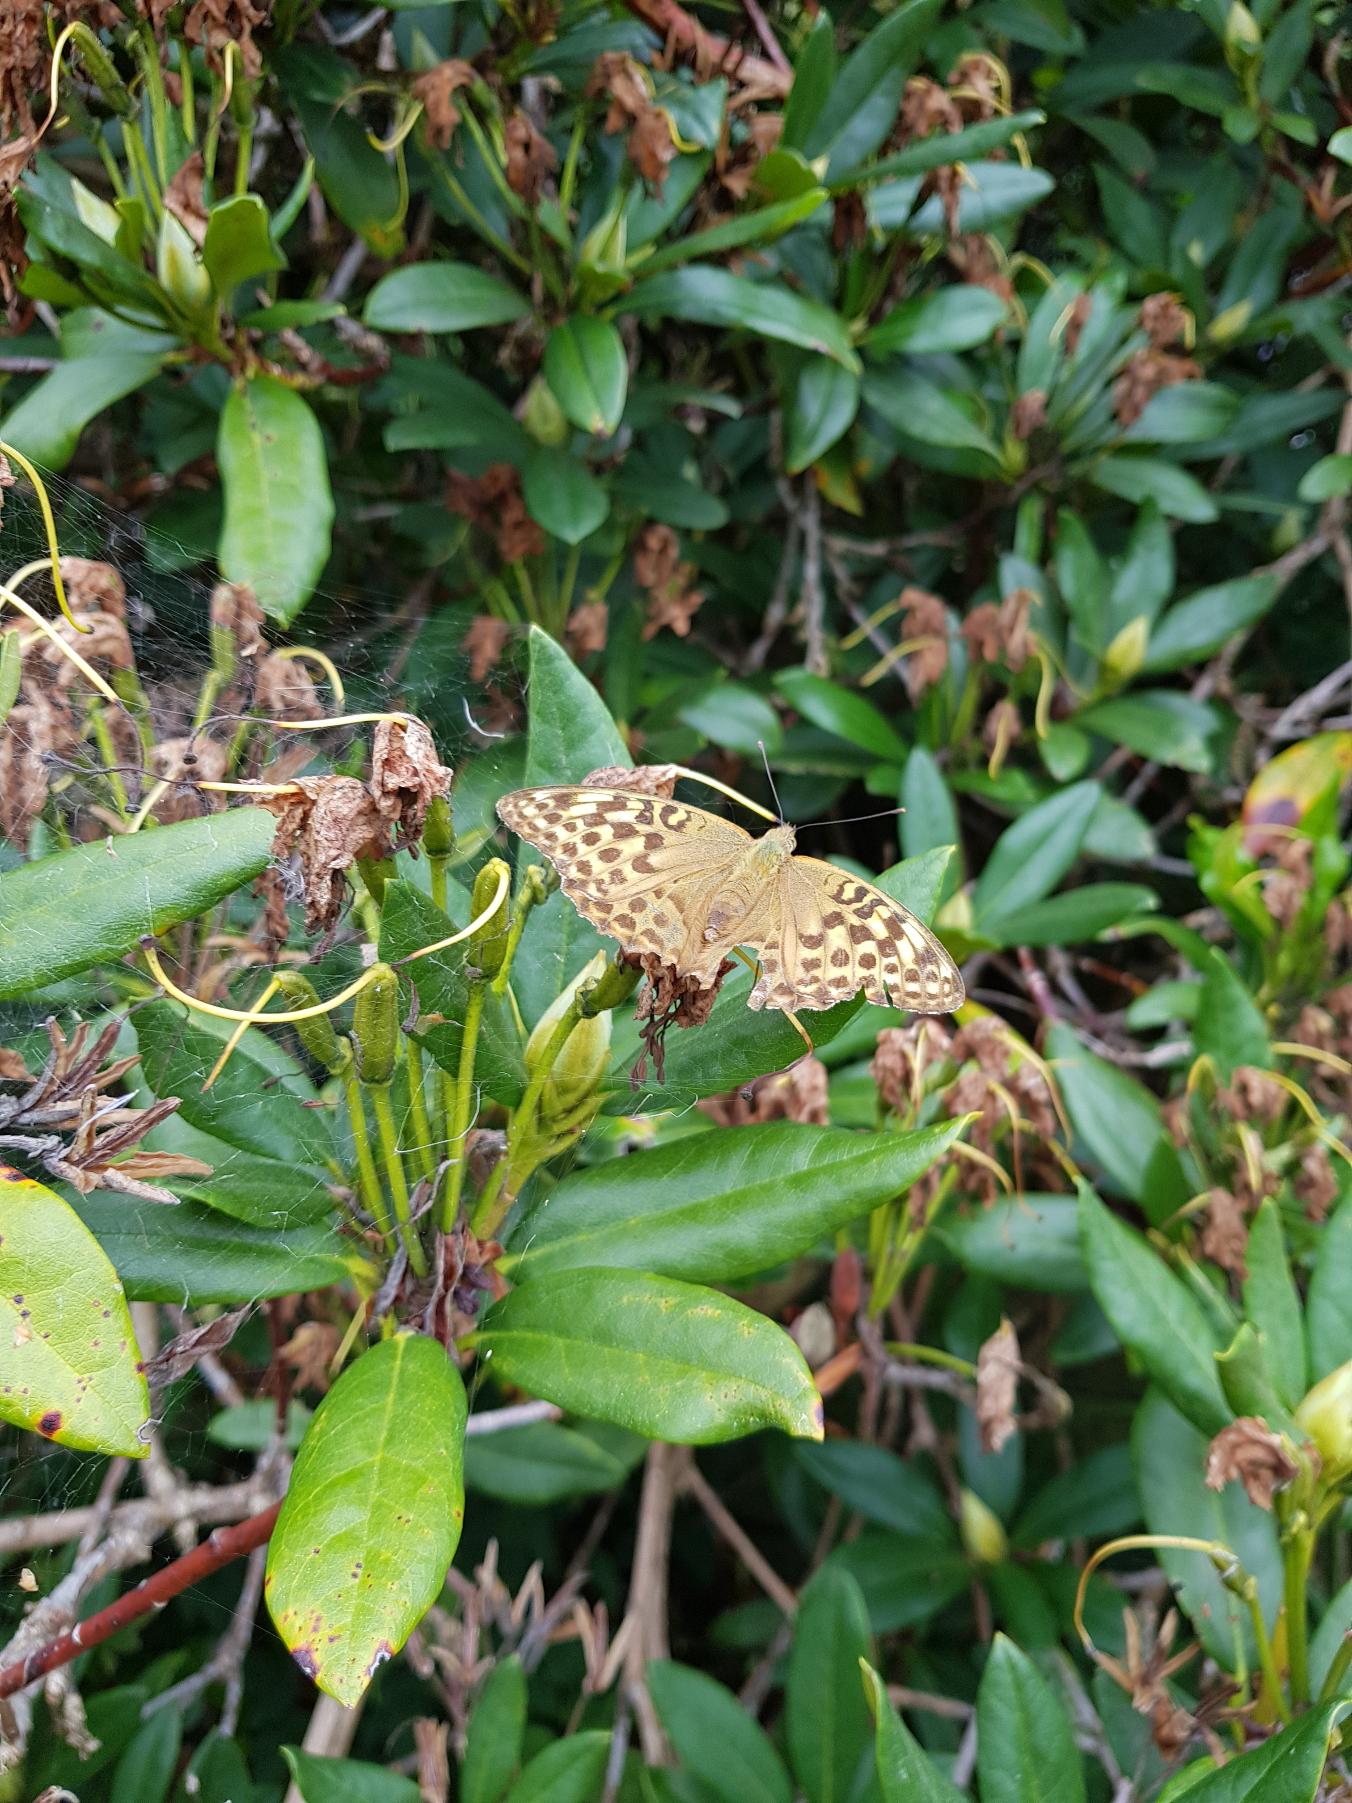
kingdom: Animalia
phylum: Arthropoda
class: Insecta
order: Lepidoptera
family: Nymphalidae
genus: Argynnis
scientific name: Argynnis paphia
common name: Kejserkåbe
